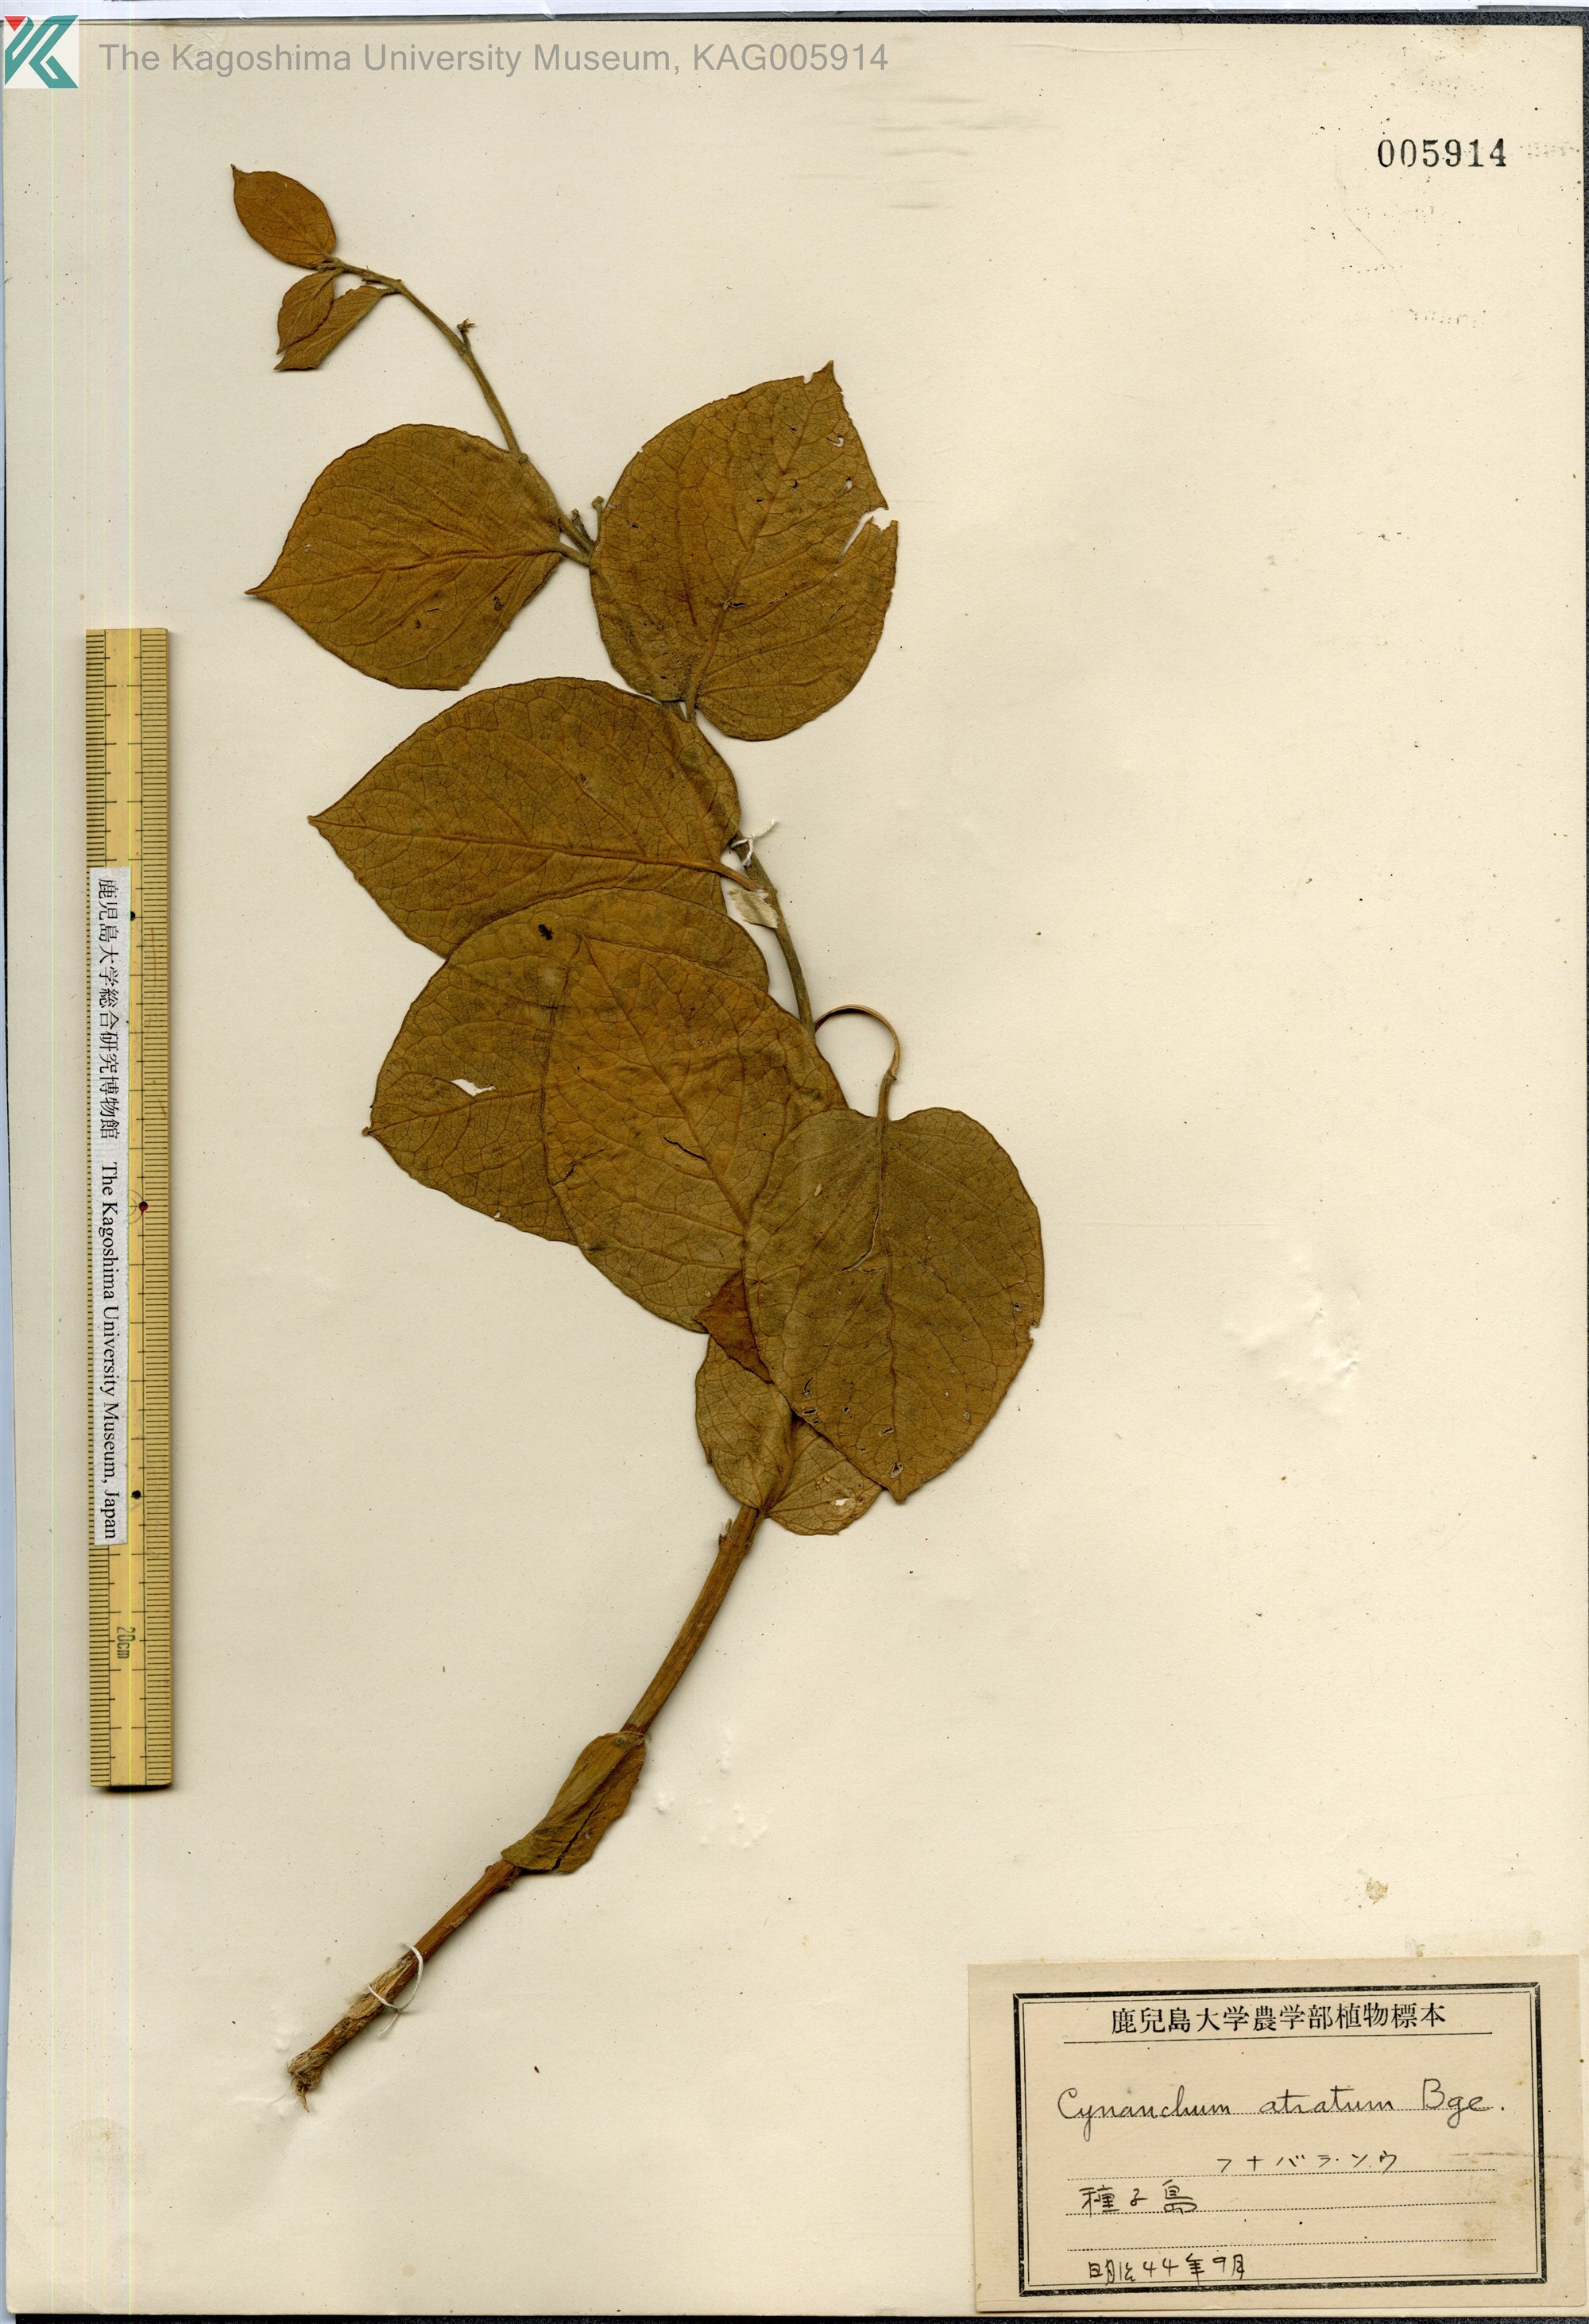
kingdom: Plantae
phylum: Tracheophyta
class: Magnoliopsida
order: Gentianales
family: Apocynaceae
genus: Vincetoxicum
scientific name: Vincetoxicum atratum
